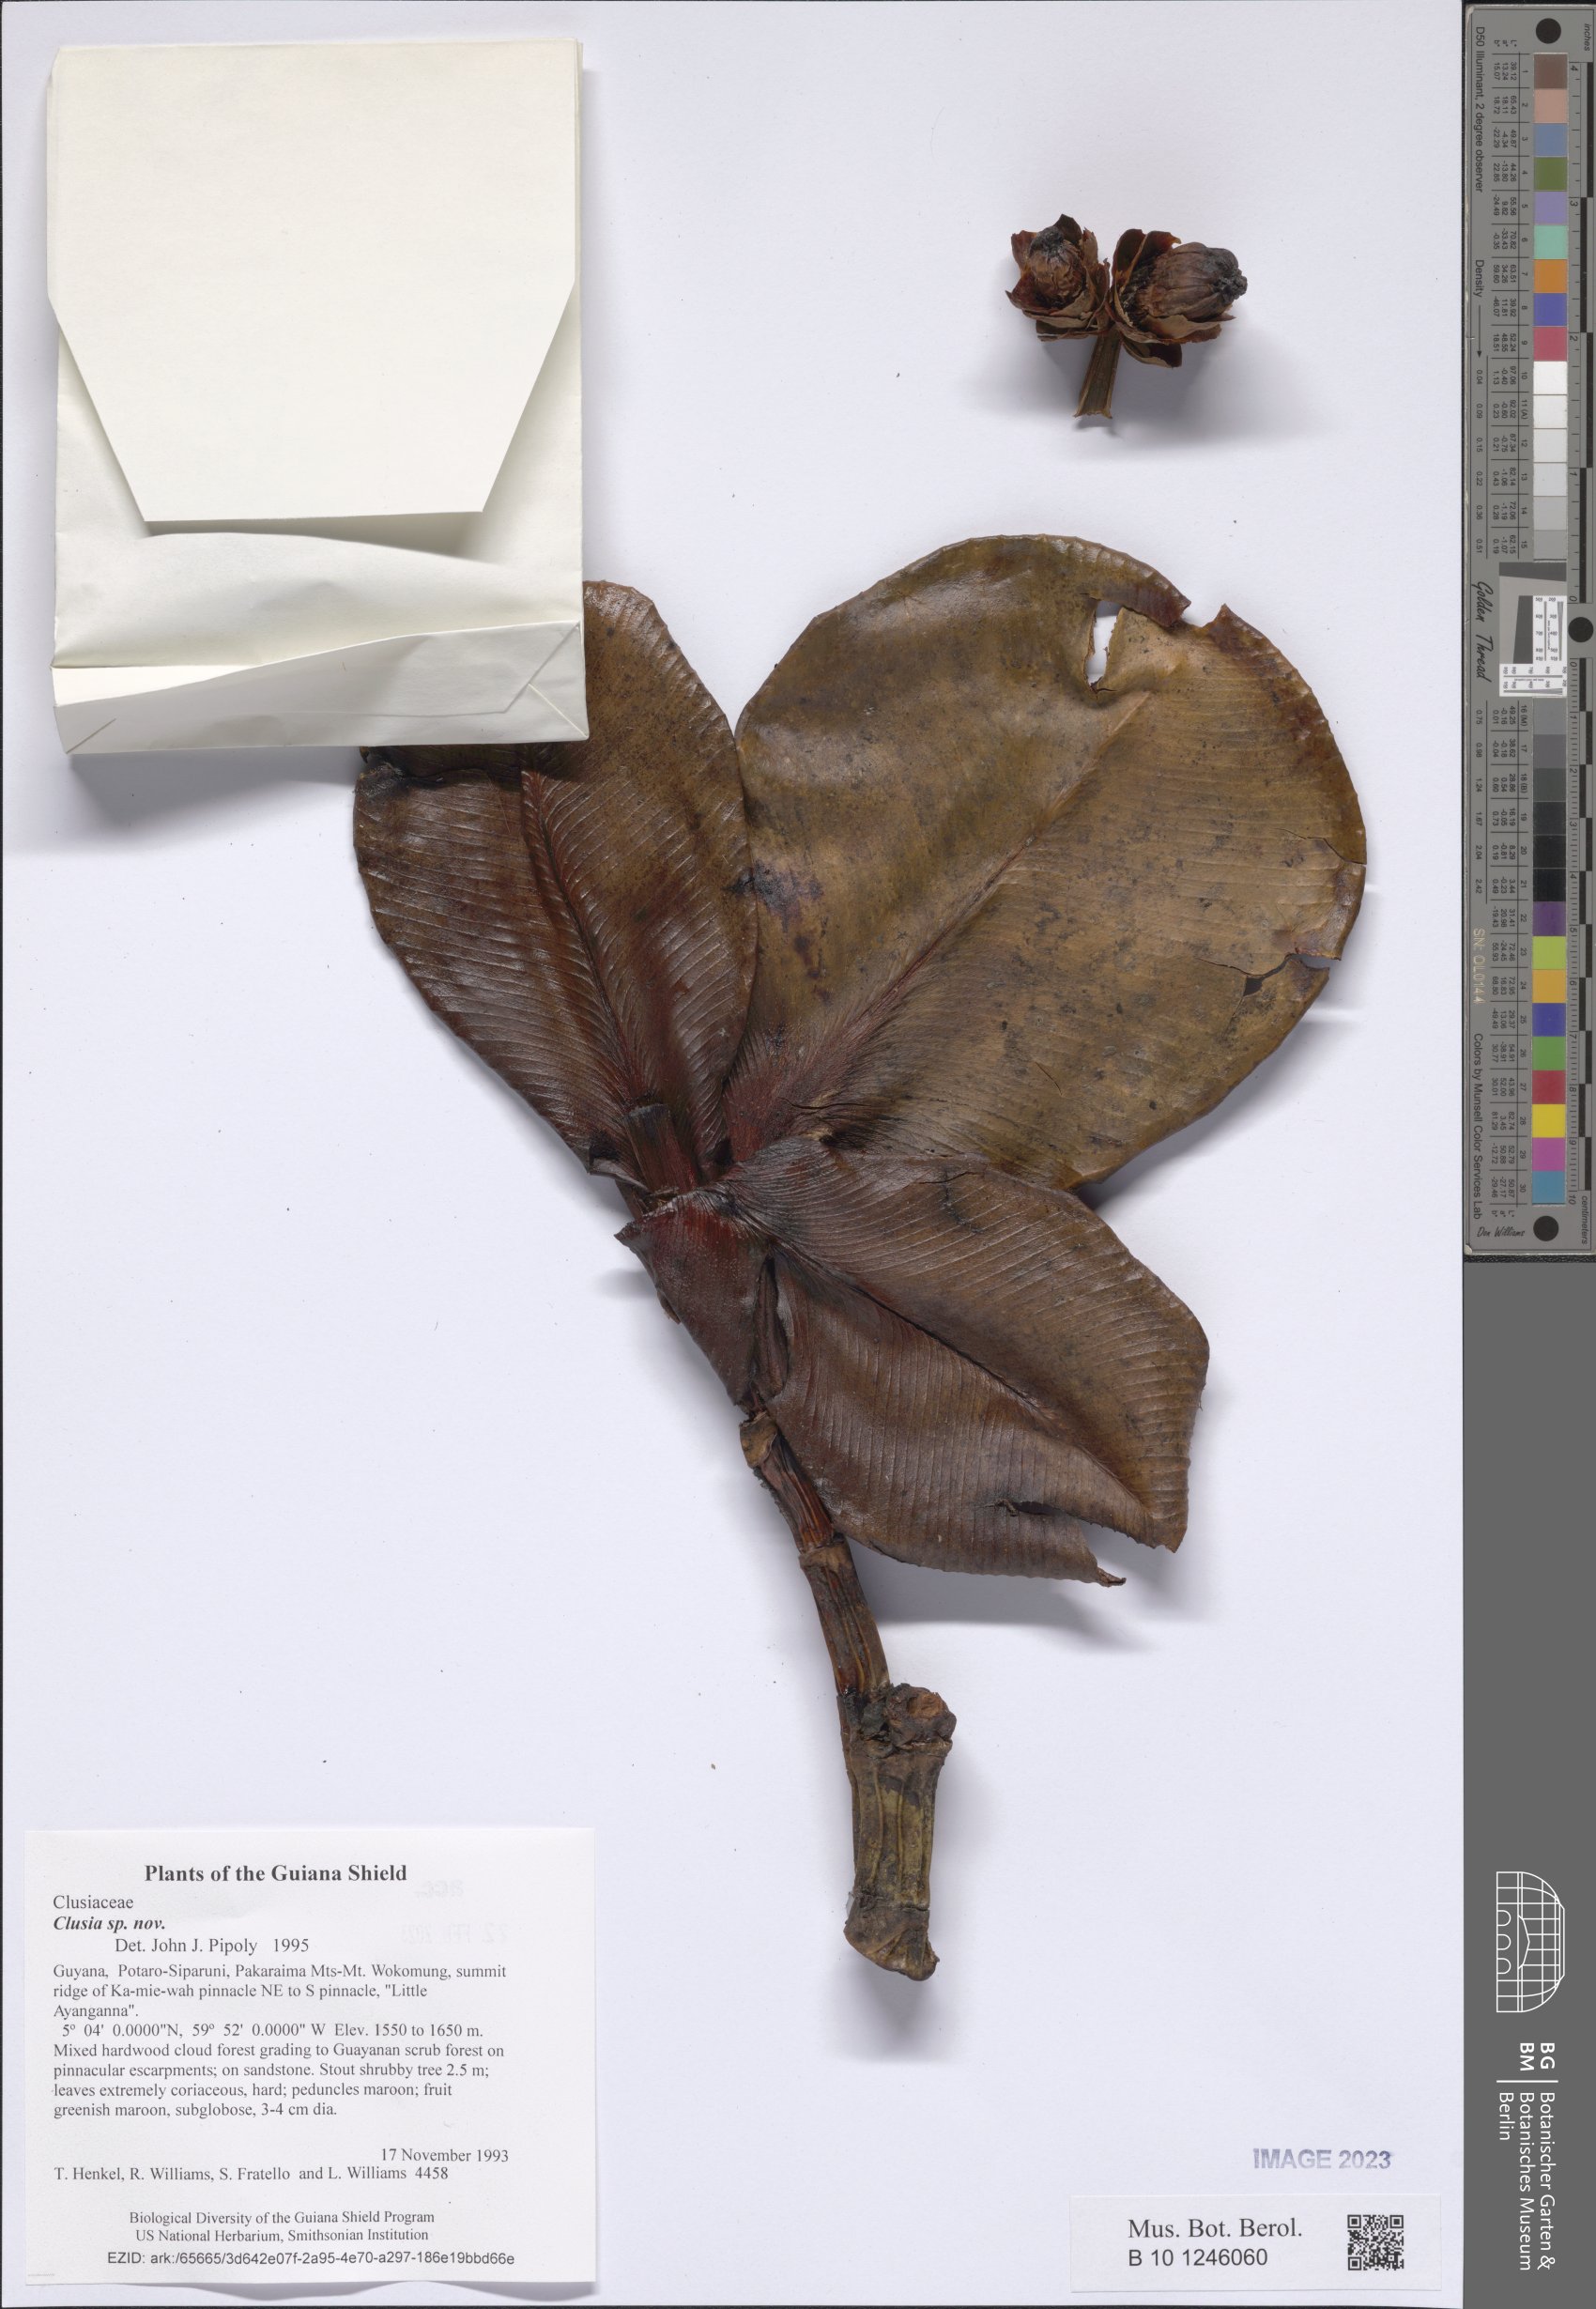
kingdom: Plantae
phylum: Tracheophyta
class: Magnoliopsida
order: Malpighiales
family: Clusiaceae
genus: Clusia
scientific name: Clusia capituliflora
